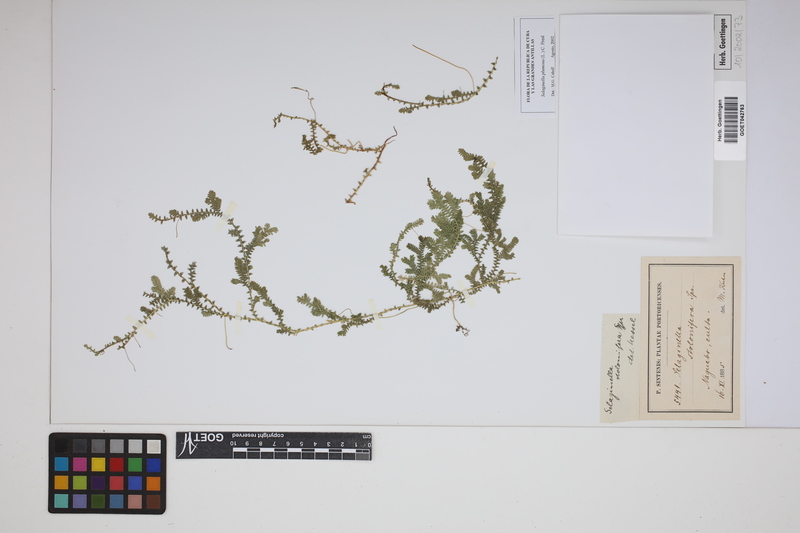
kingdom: Plantae
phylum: Tracheophyta
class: Lycopodiopsida
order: Selaginellales
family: Selaginellaceae
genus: Selaginella
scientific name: Selaginella plumosa
